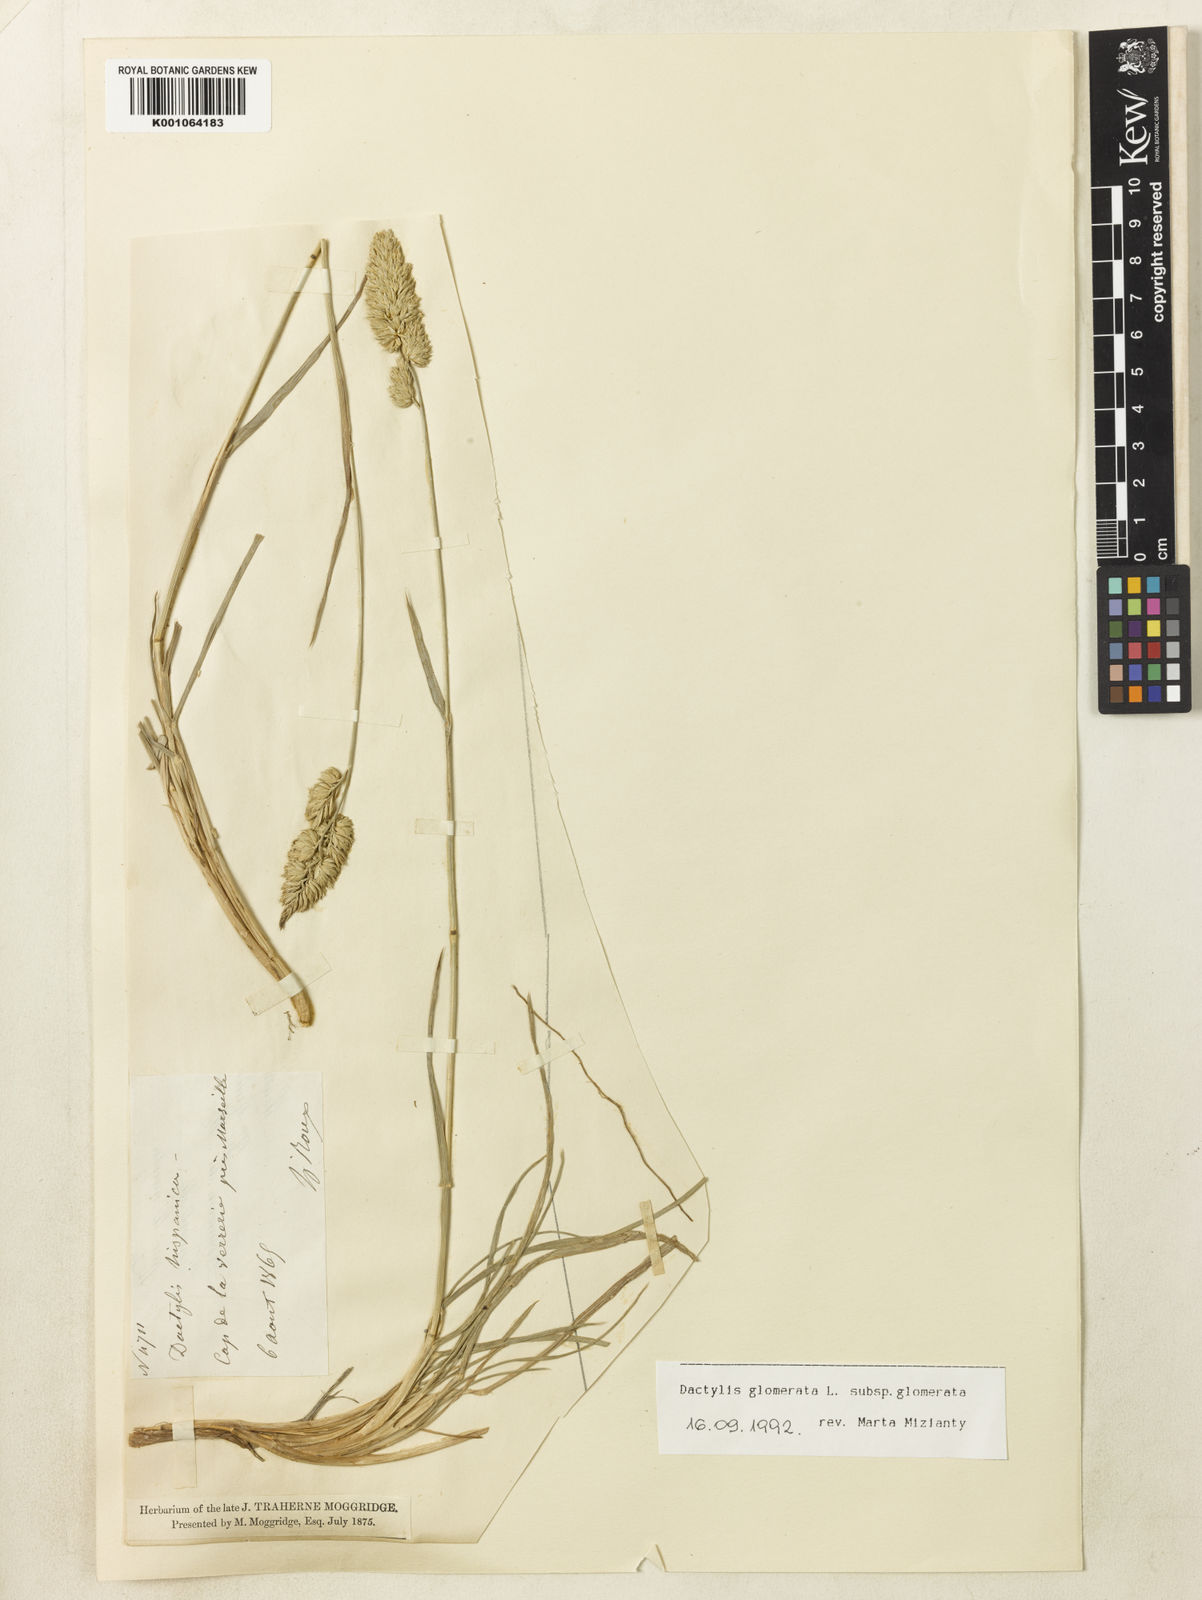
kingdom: Plantae
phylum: Tracheophyta
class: Liliopsida
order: Poales
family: Poaceae
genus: Dactylis
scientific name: Dactylis glomerata
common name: Orchardgrass
